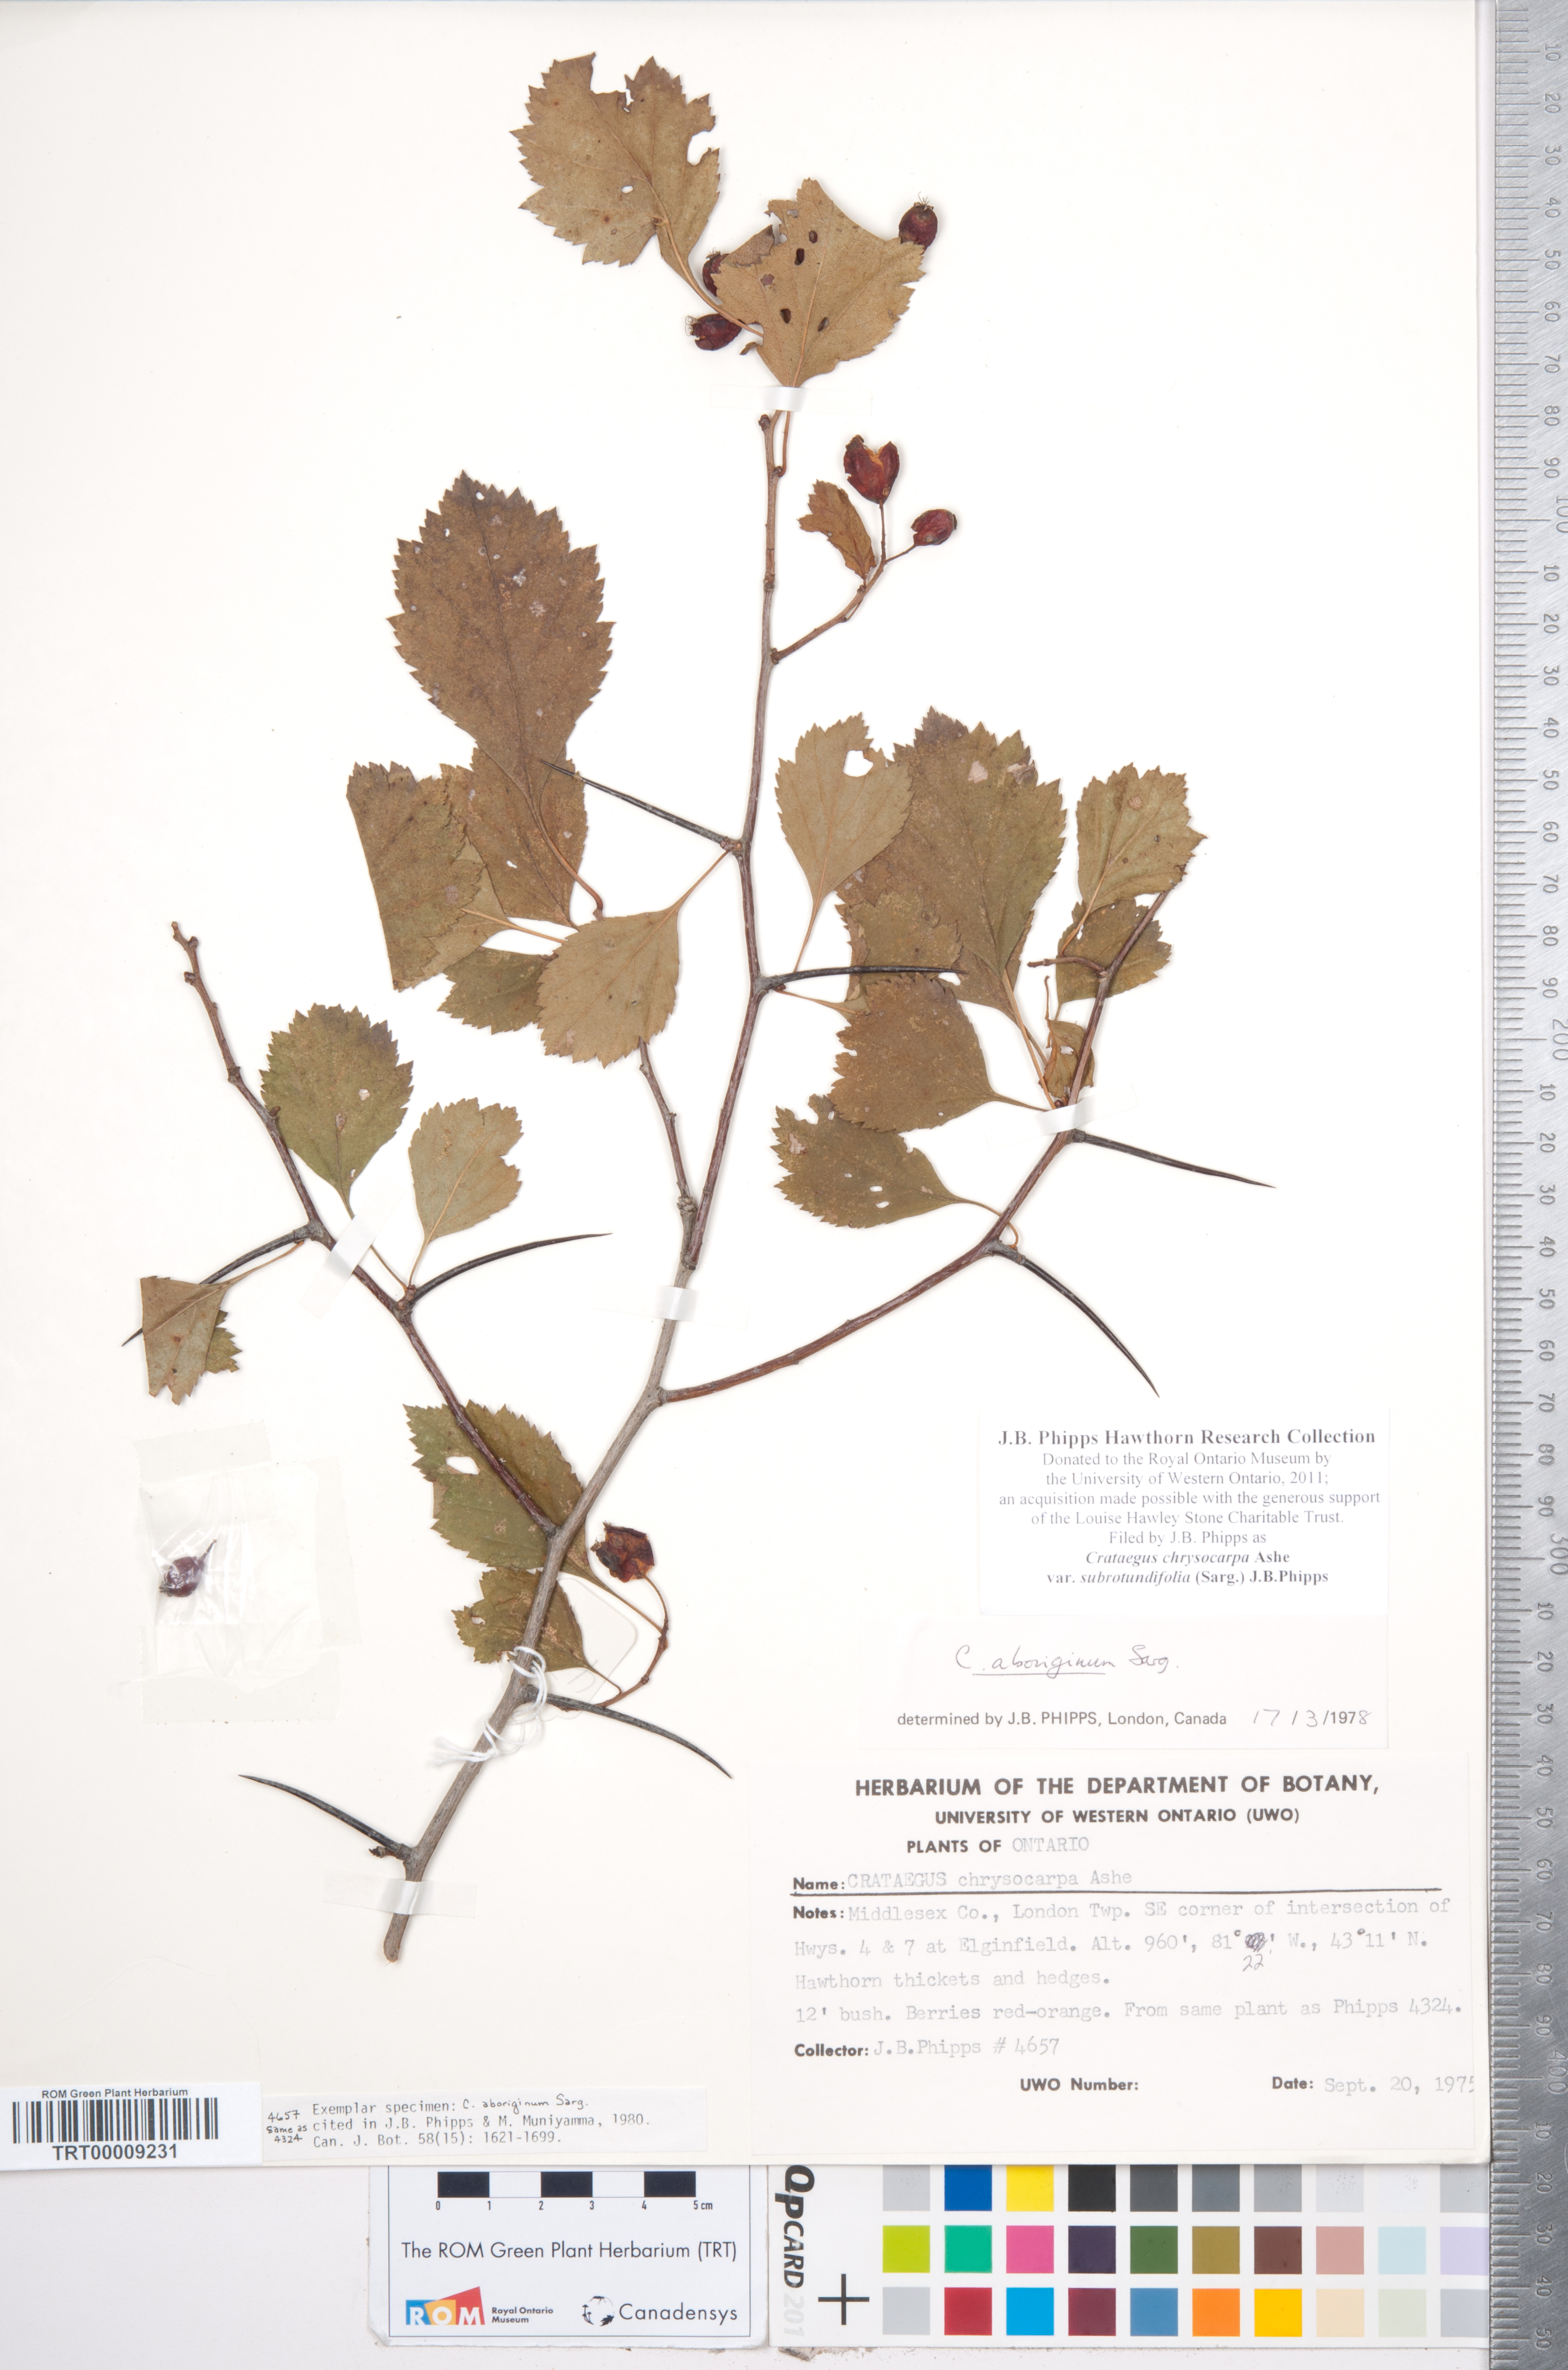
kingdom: Plantae
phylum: Tracheophyta
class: Magnoliopsida
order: Rosales
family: Rosaceae
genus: Crataegus
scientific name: Crataegus chrysocarpa
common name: Fire-berry hawthorn
